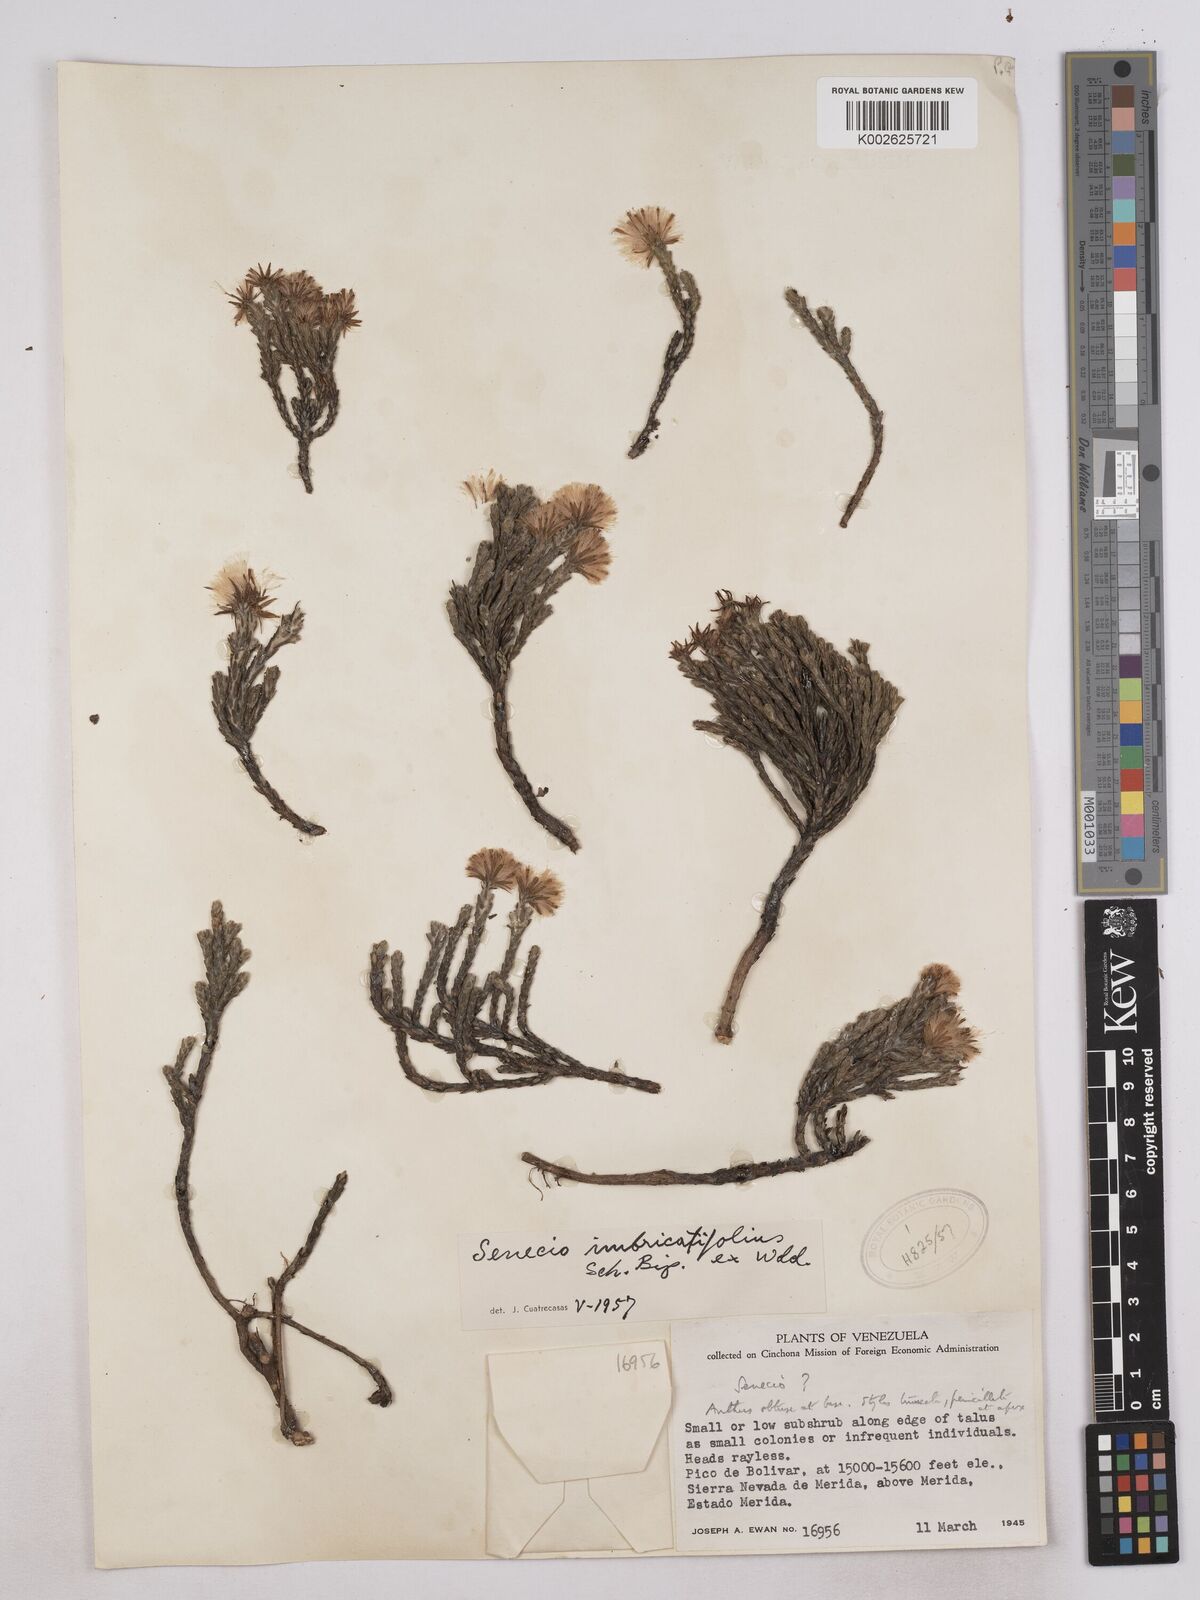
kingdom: Plantae
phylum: Tracheophyta
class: Magnoliopsida
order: Asterales
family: Asteraceae
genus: Monticalia
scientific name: Monticalia imbricatifolia
